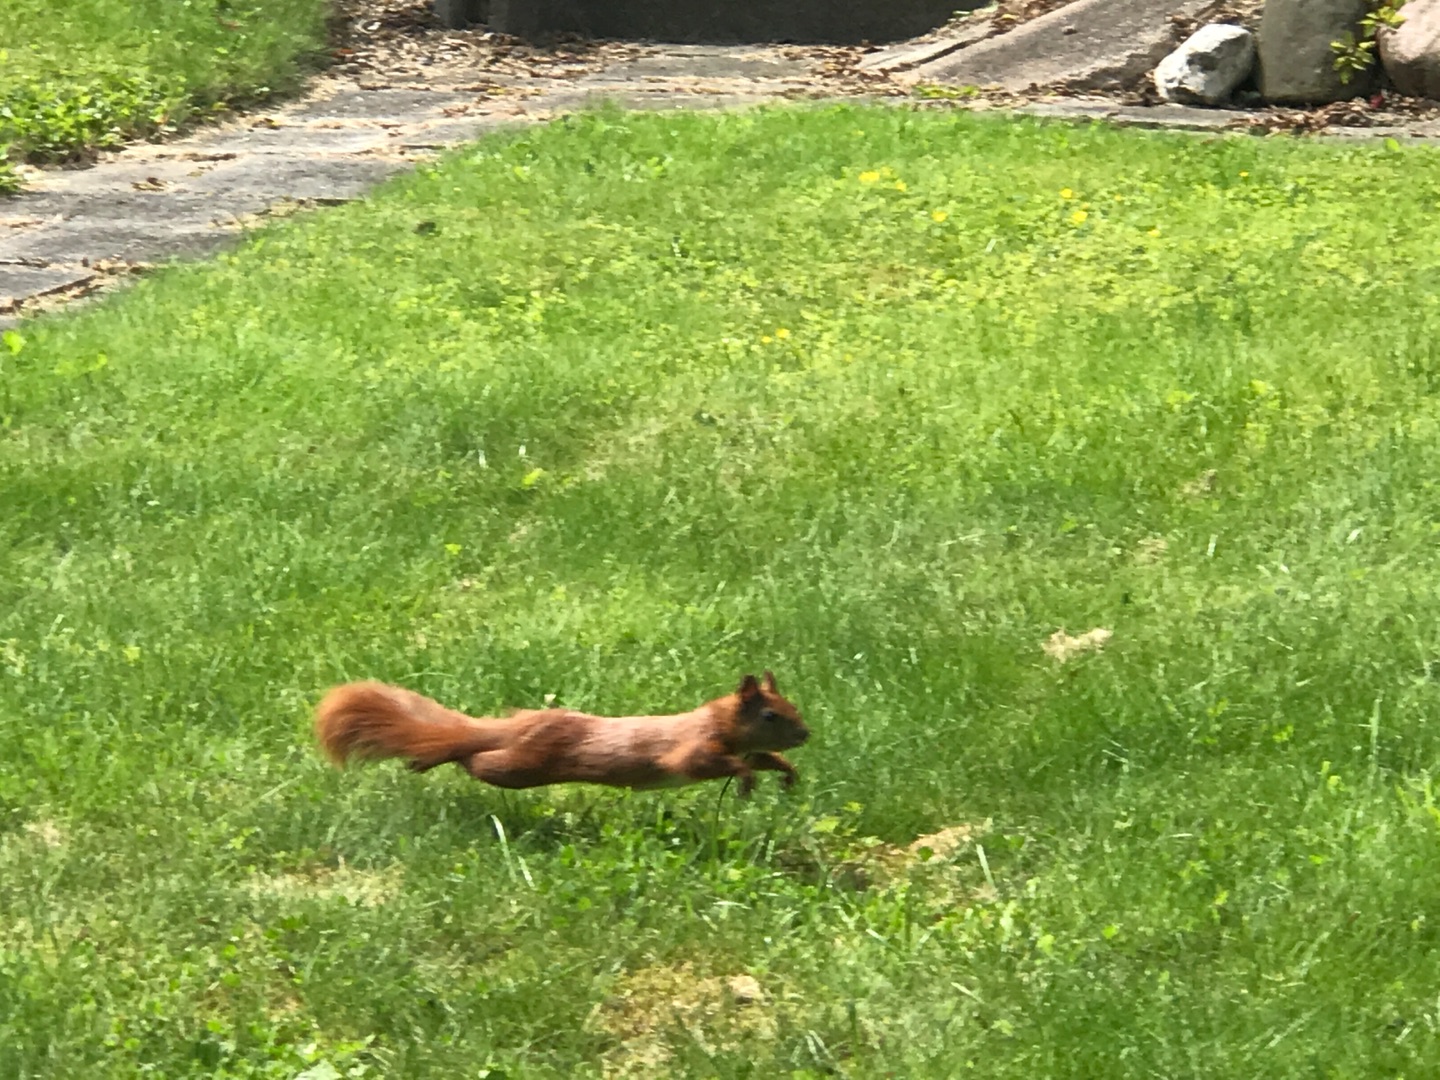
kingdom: Animalia
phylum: Chordata
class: Mammalia
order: Rodentia
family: Sciuridae
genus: Sciurus
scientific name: Sciurus vulgaris
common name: Egern
